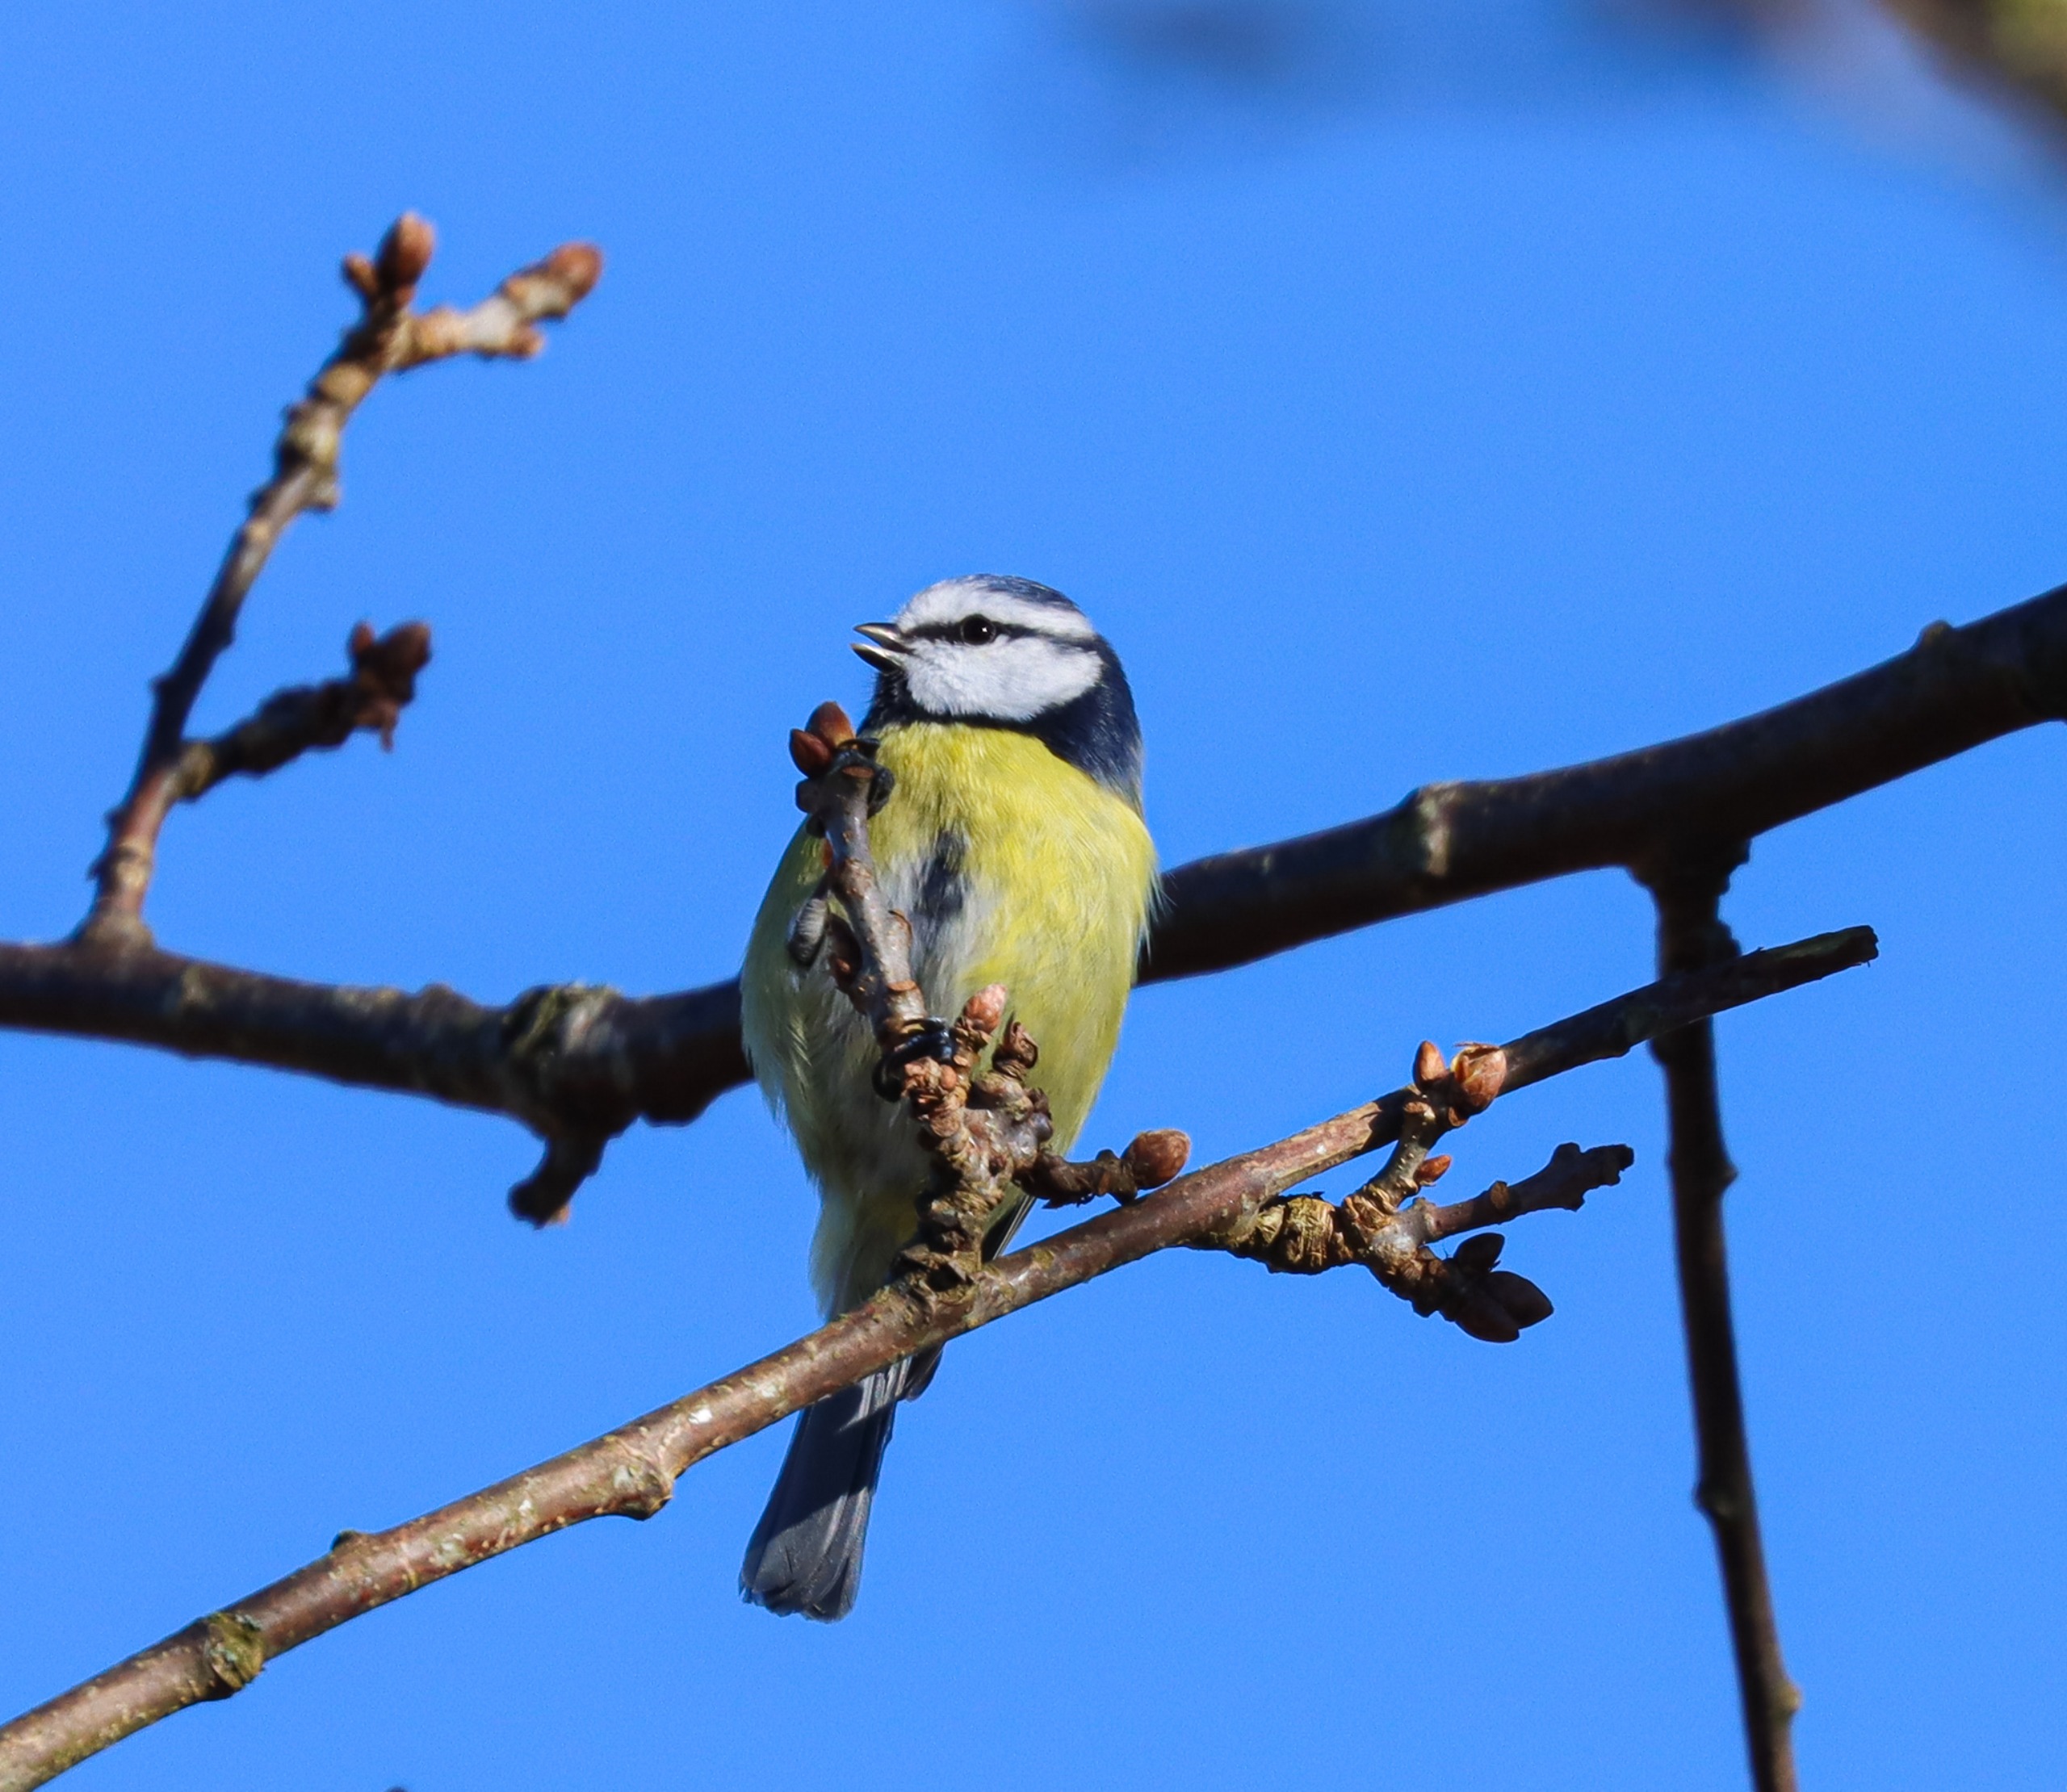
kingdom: Animalia
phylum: Chordata
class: Aves
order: Passeriformes
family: Paridae
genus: Cyanistes
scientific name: Cyanistes caeruleus
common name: Blåmejse
